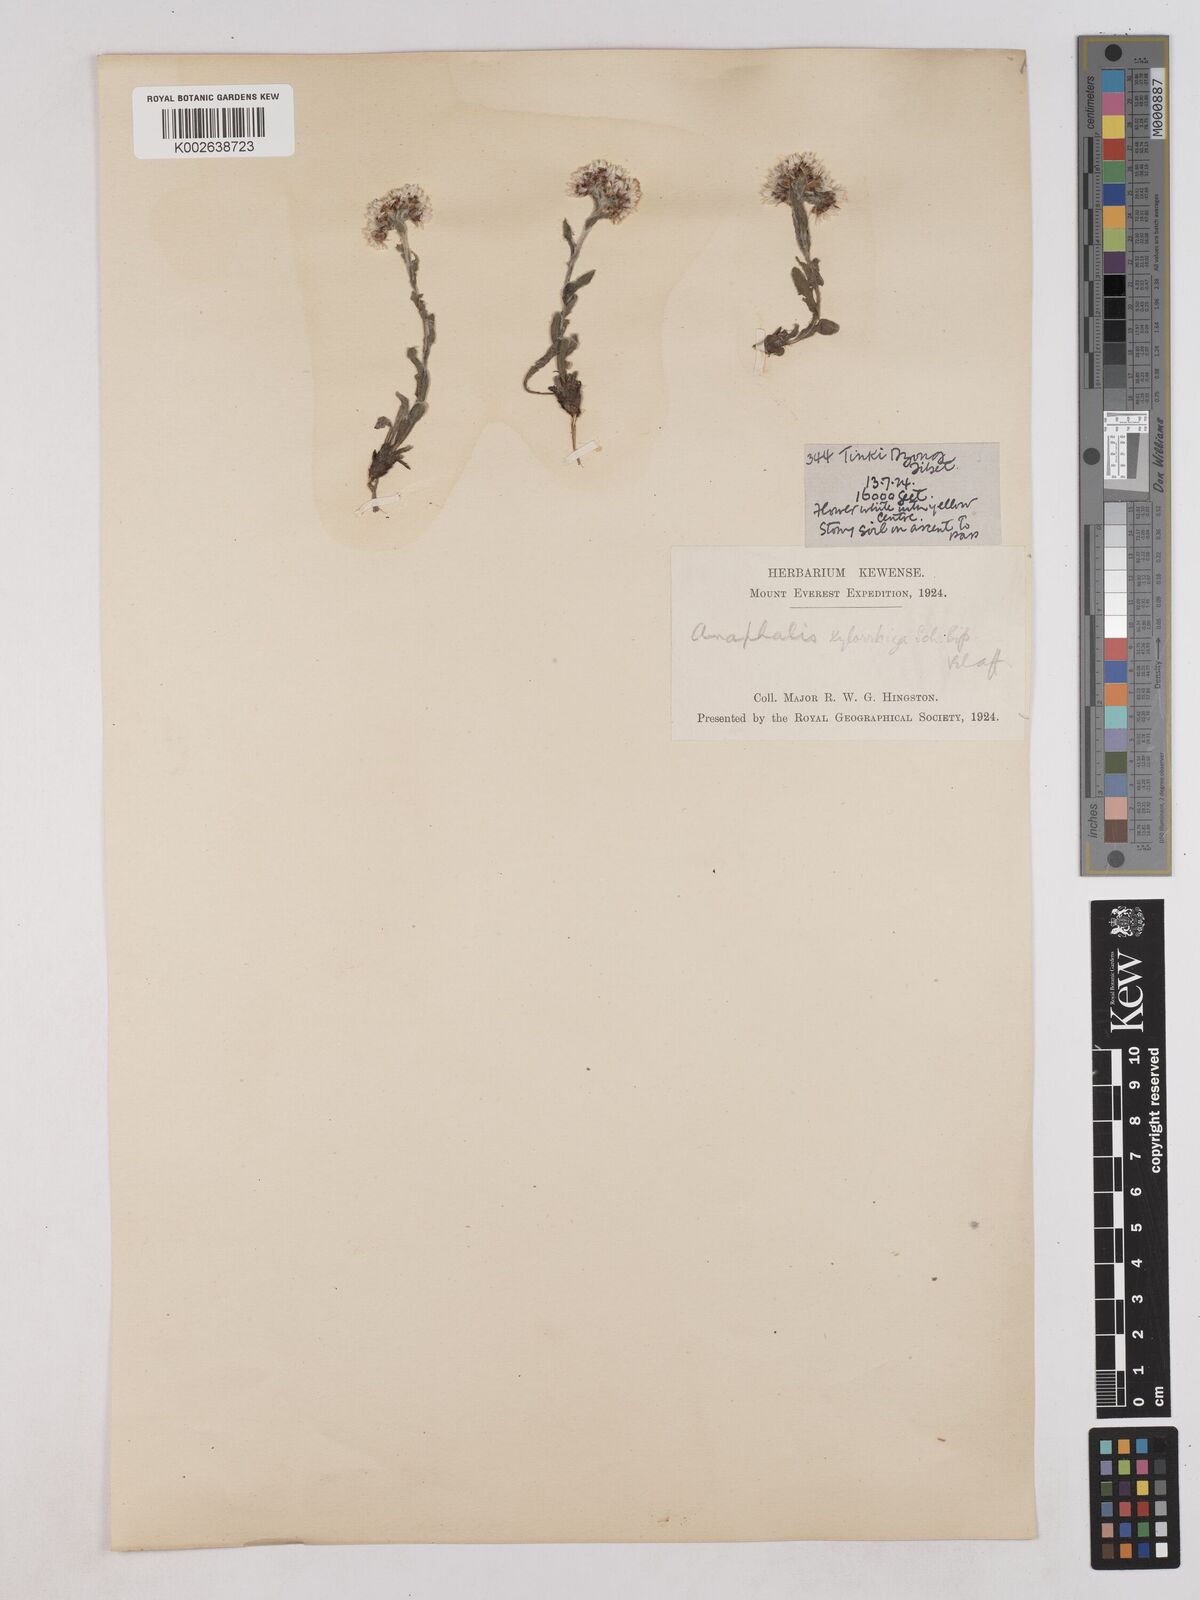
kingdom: Plantae
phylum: Tracheophyta
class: Magnoliopsida
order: Asterales
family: Asteraceae
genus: Anaphalis
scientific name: Anaphalis xylorhiza
